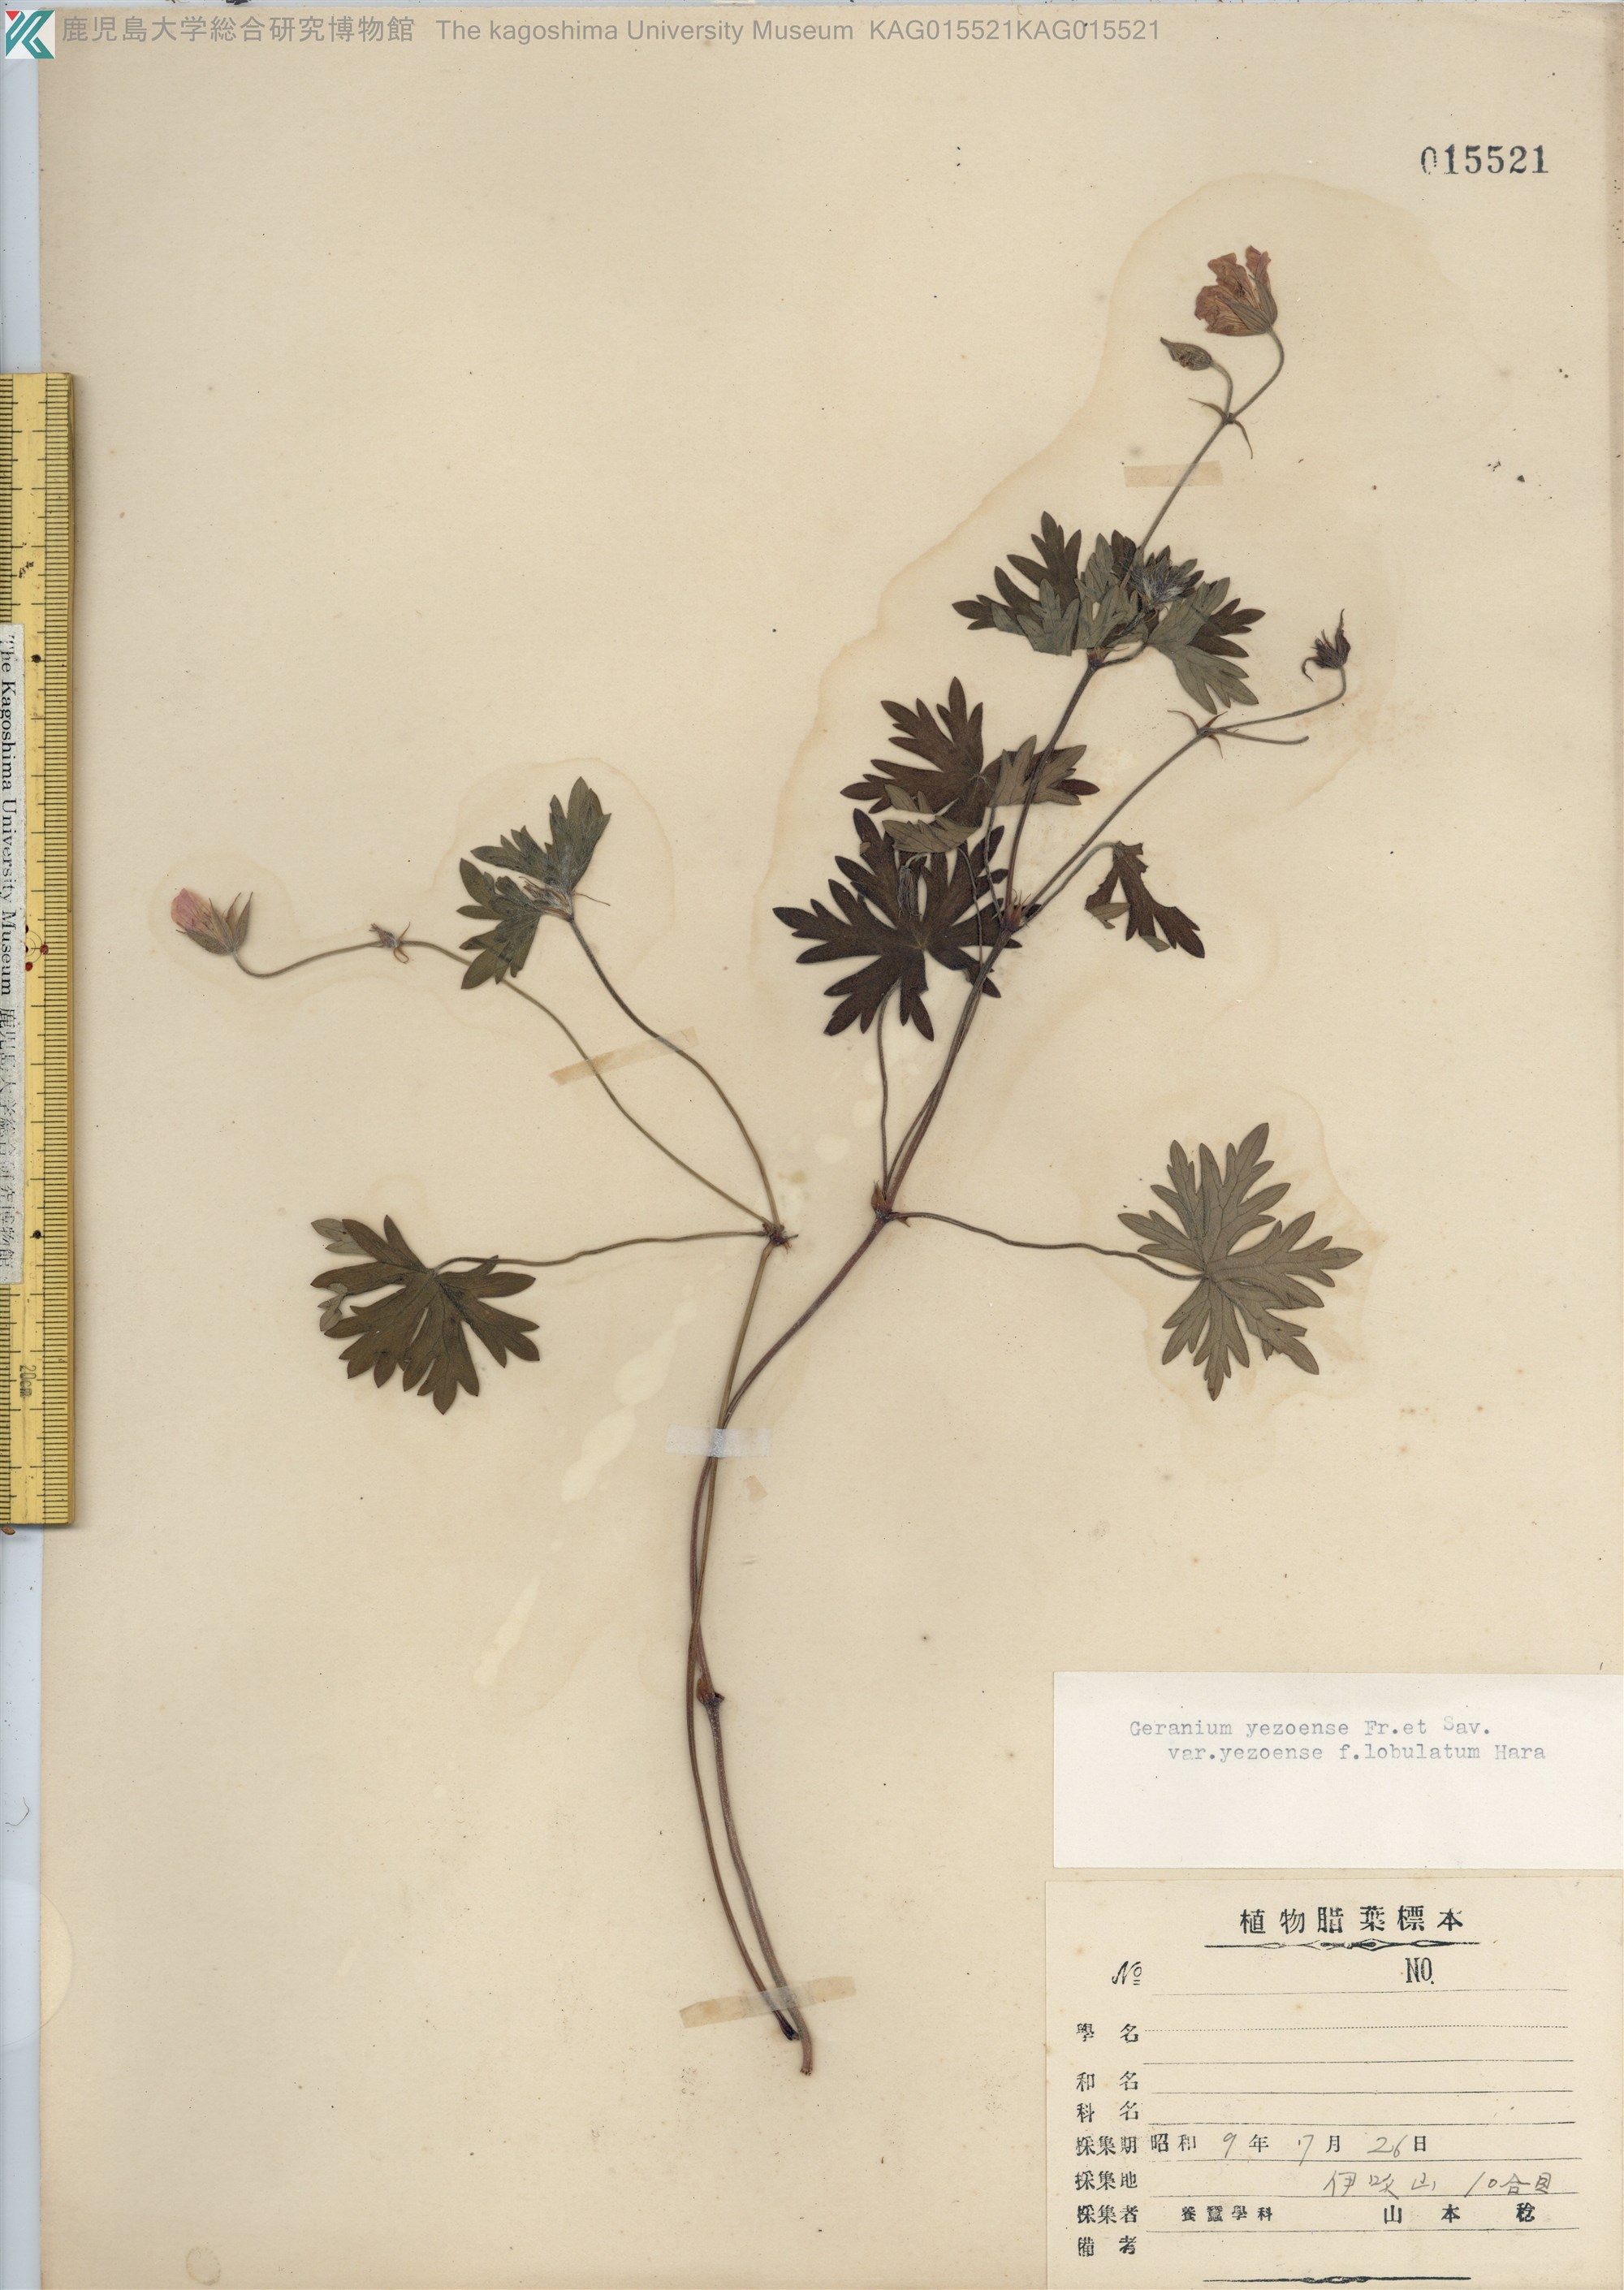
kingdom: Plantae
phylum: Tracheophyta
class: Magnoliopsida
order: Geraniales
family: Geraniaceae
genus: Geranium
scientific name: Geranium yesoense
